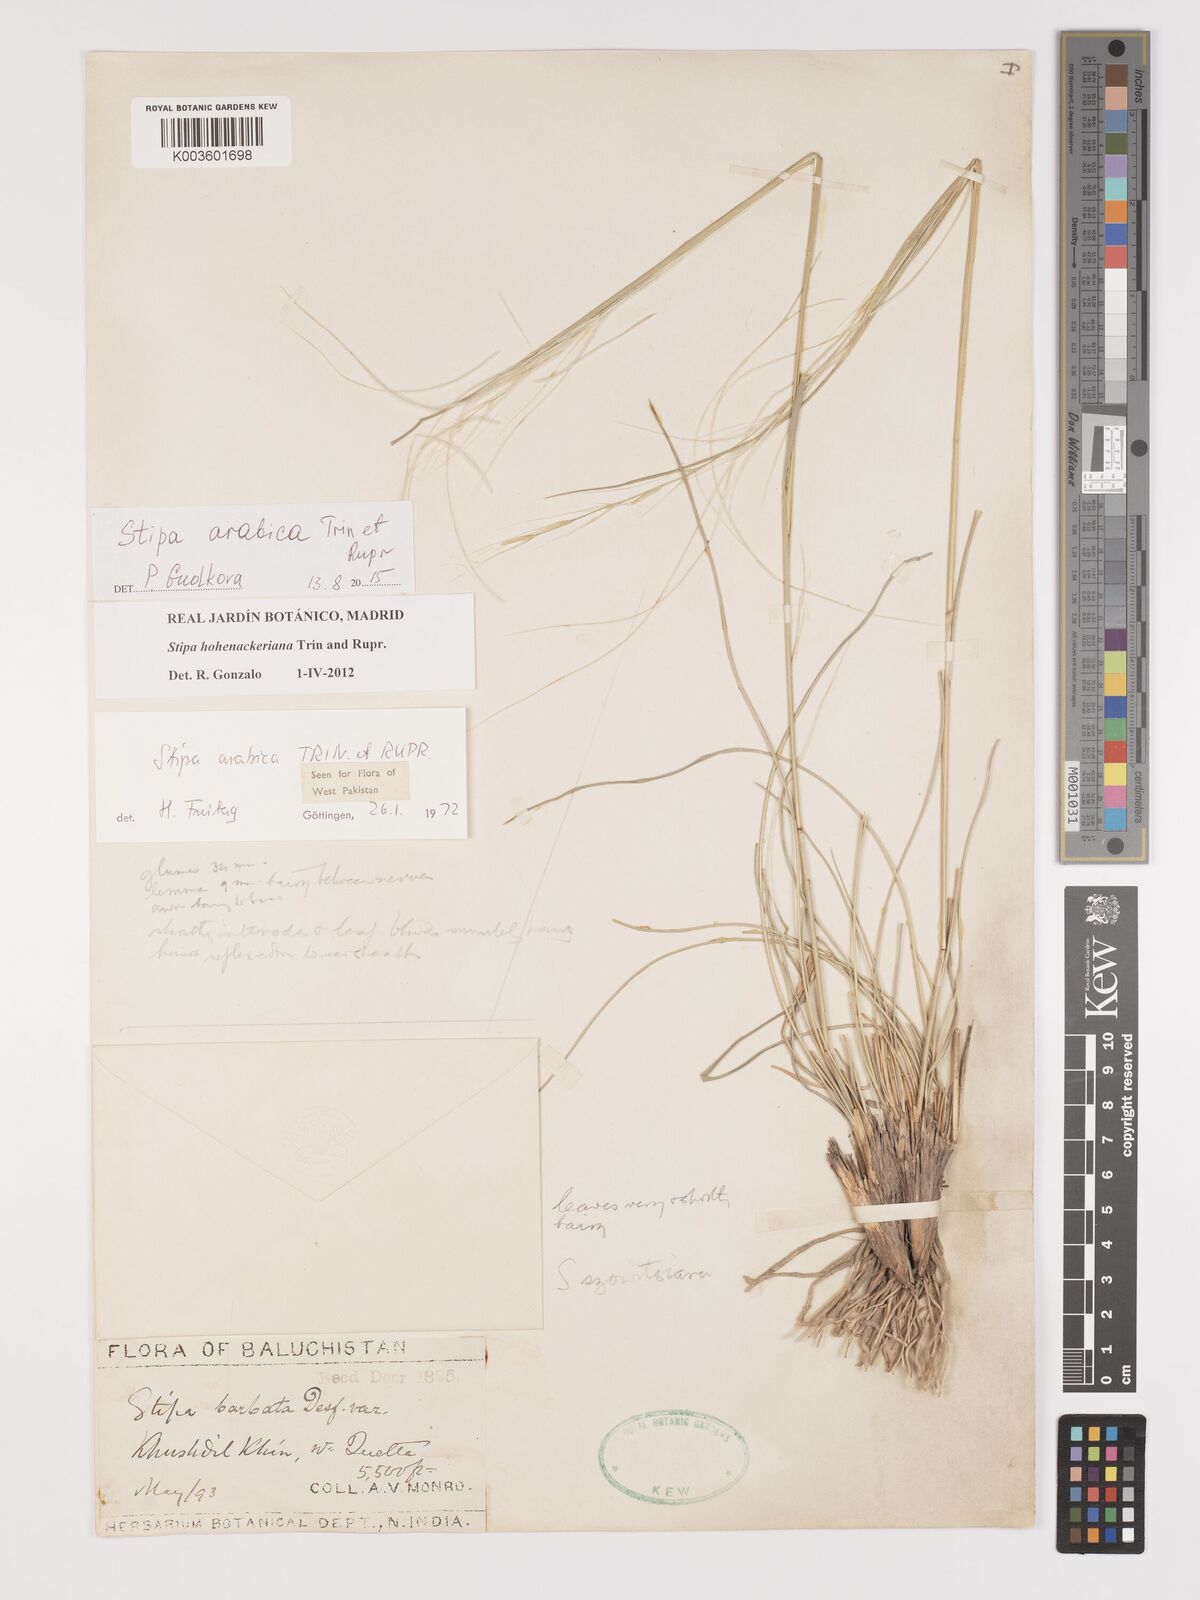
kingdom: Plantae
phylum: Tracheophyta
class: Liliopsida
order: Poales
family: Poaceae
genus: Stipa
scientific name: Stipa arabica
